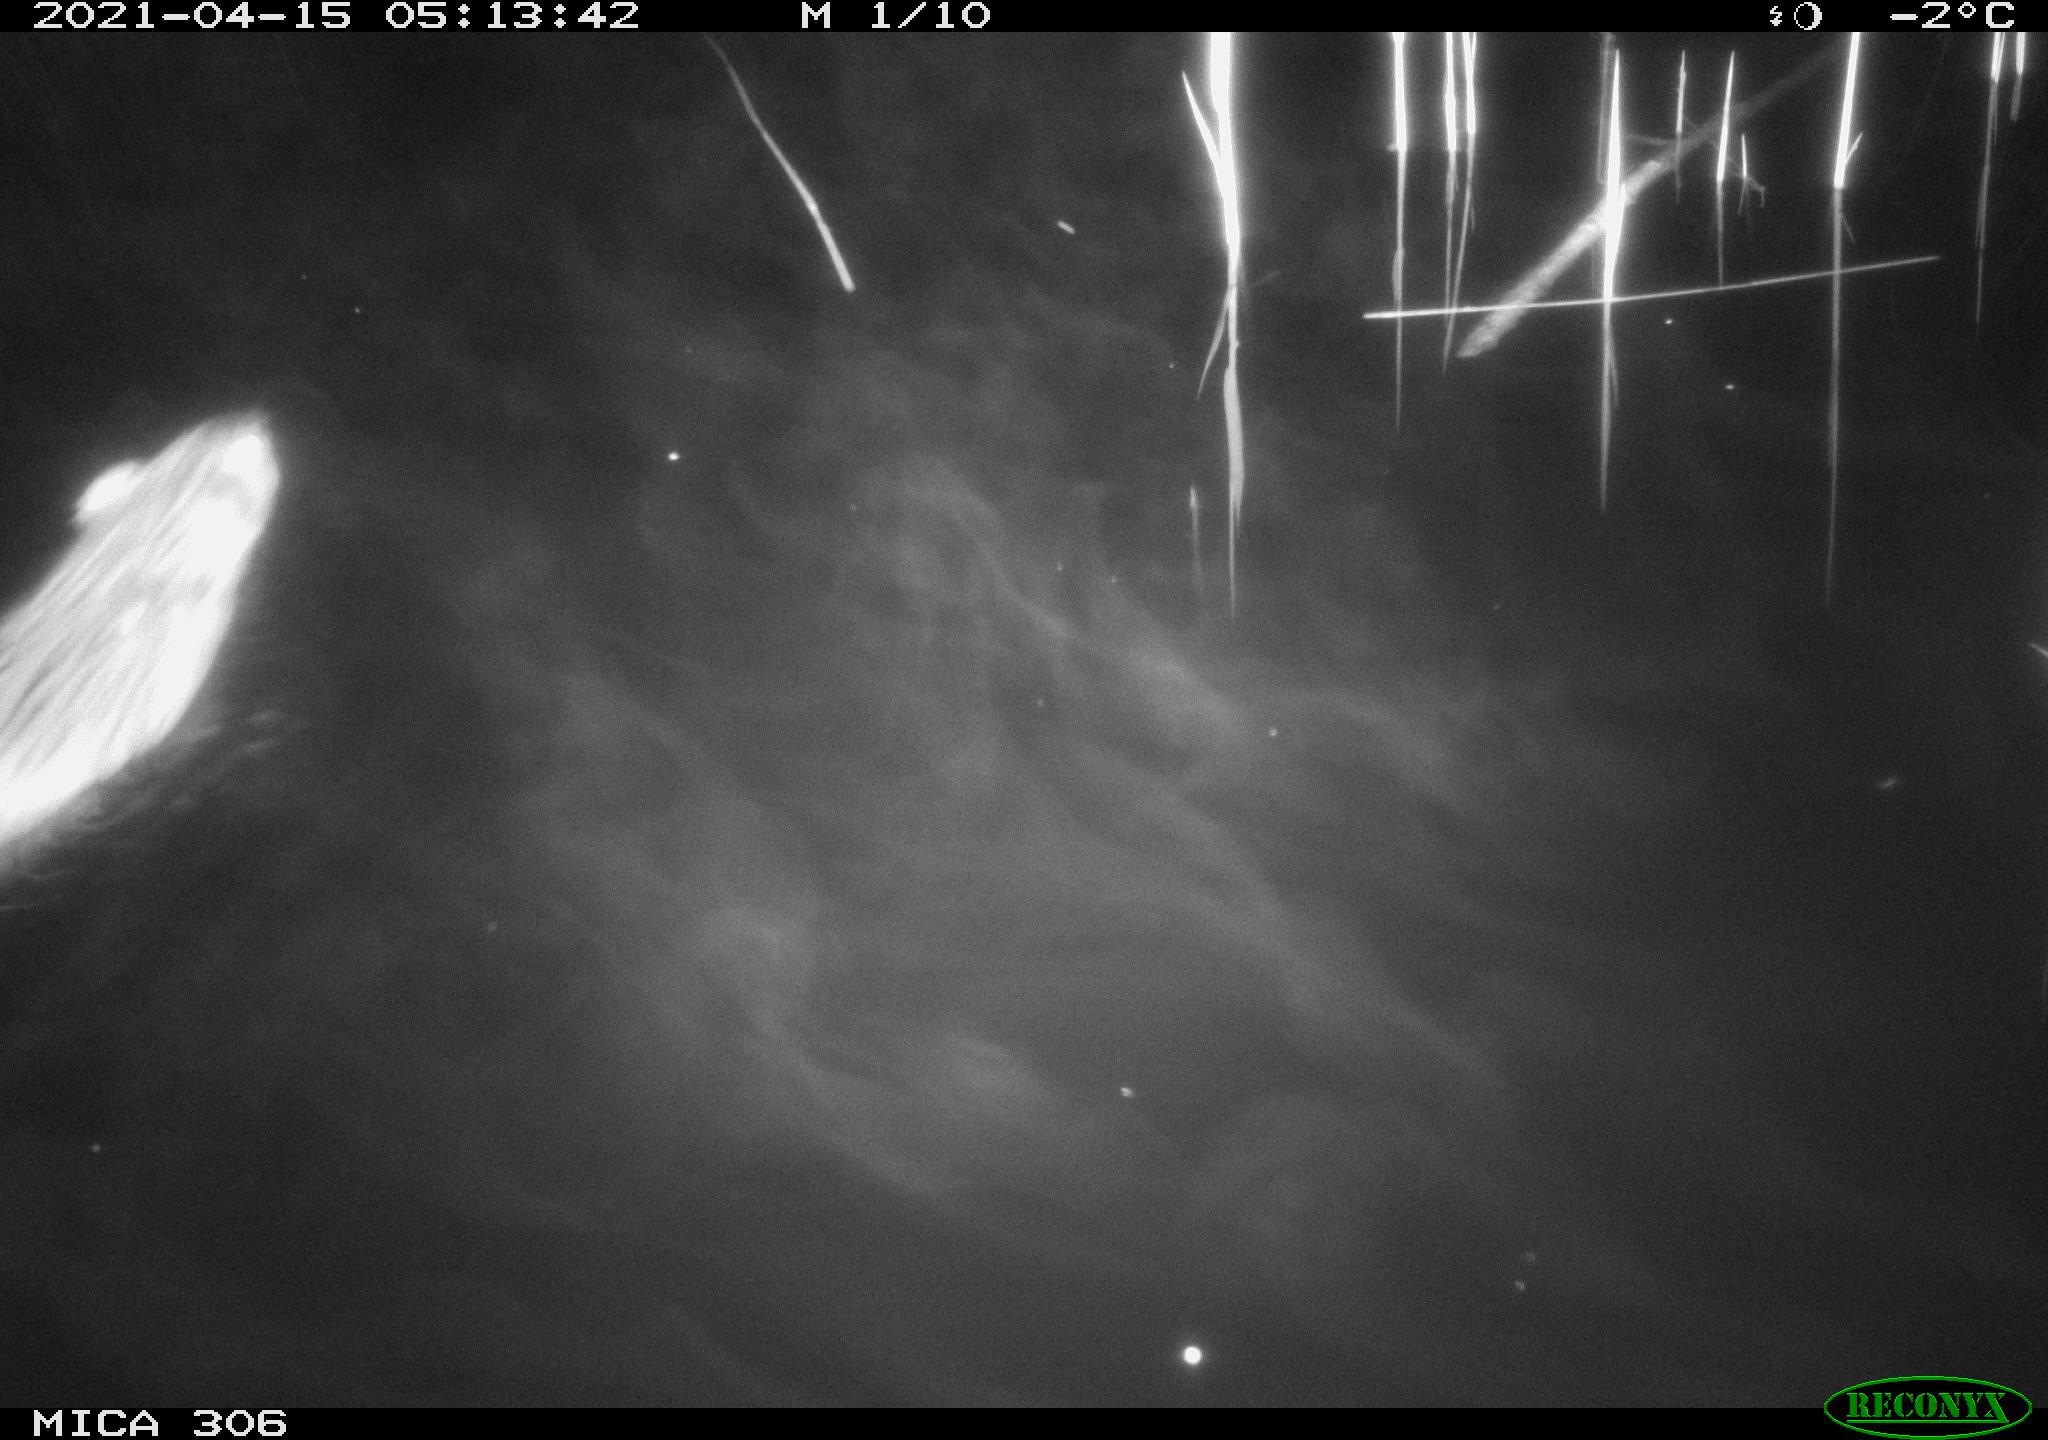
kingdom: Animalia
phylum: Chordata
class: Mammalia
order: Rodentia
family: Cricetidae
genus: Ondatra
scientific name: Ondatra zibethicus
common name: Muskrat
